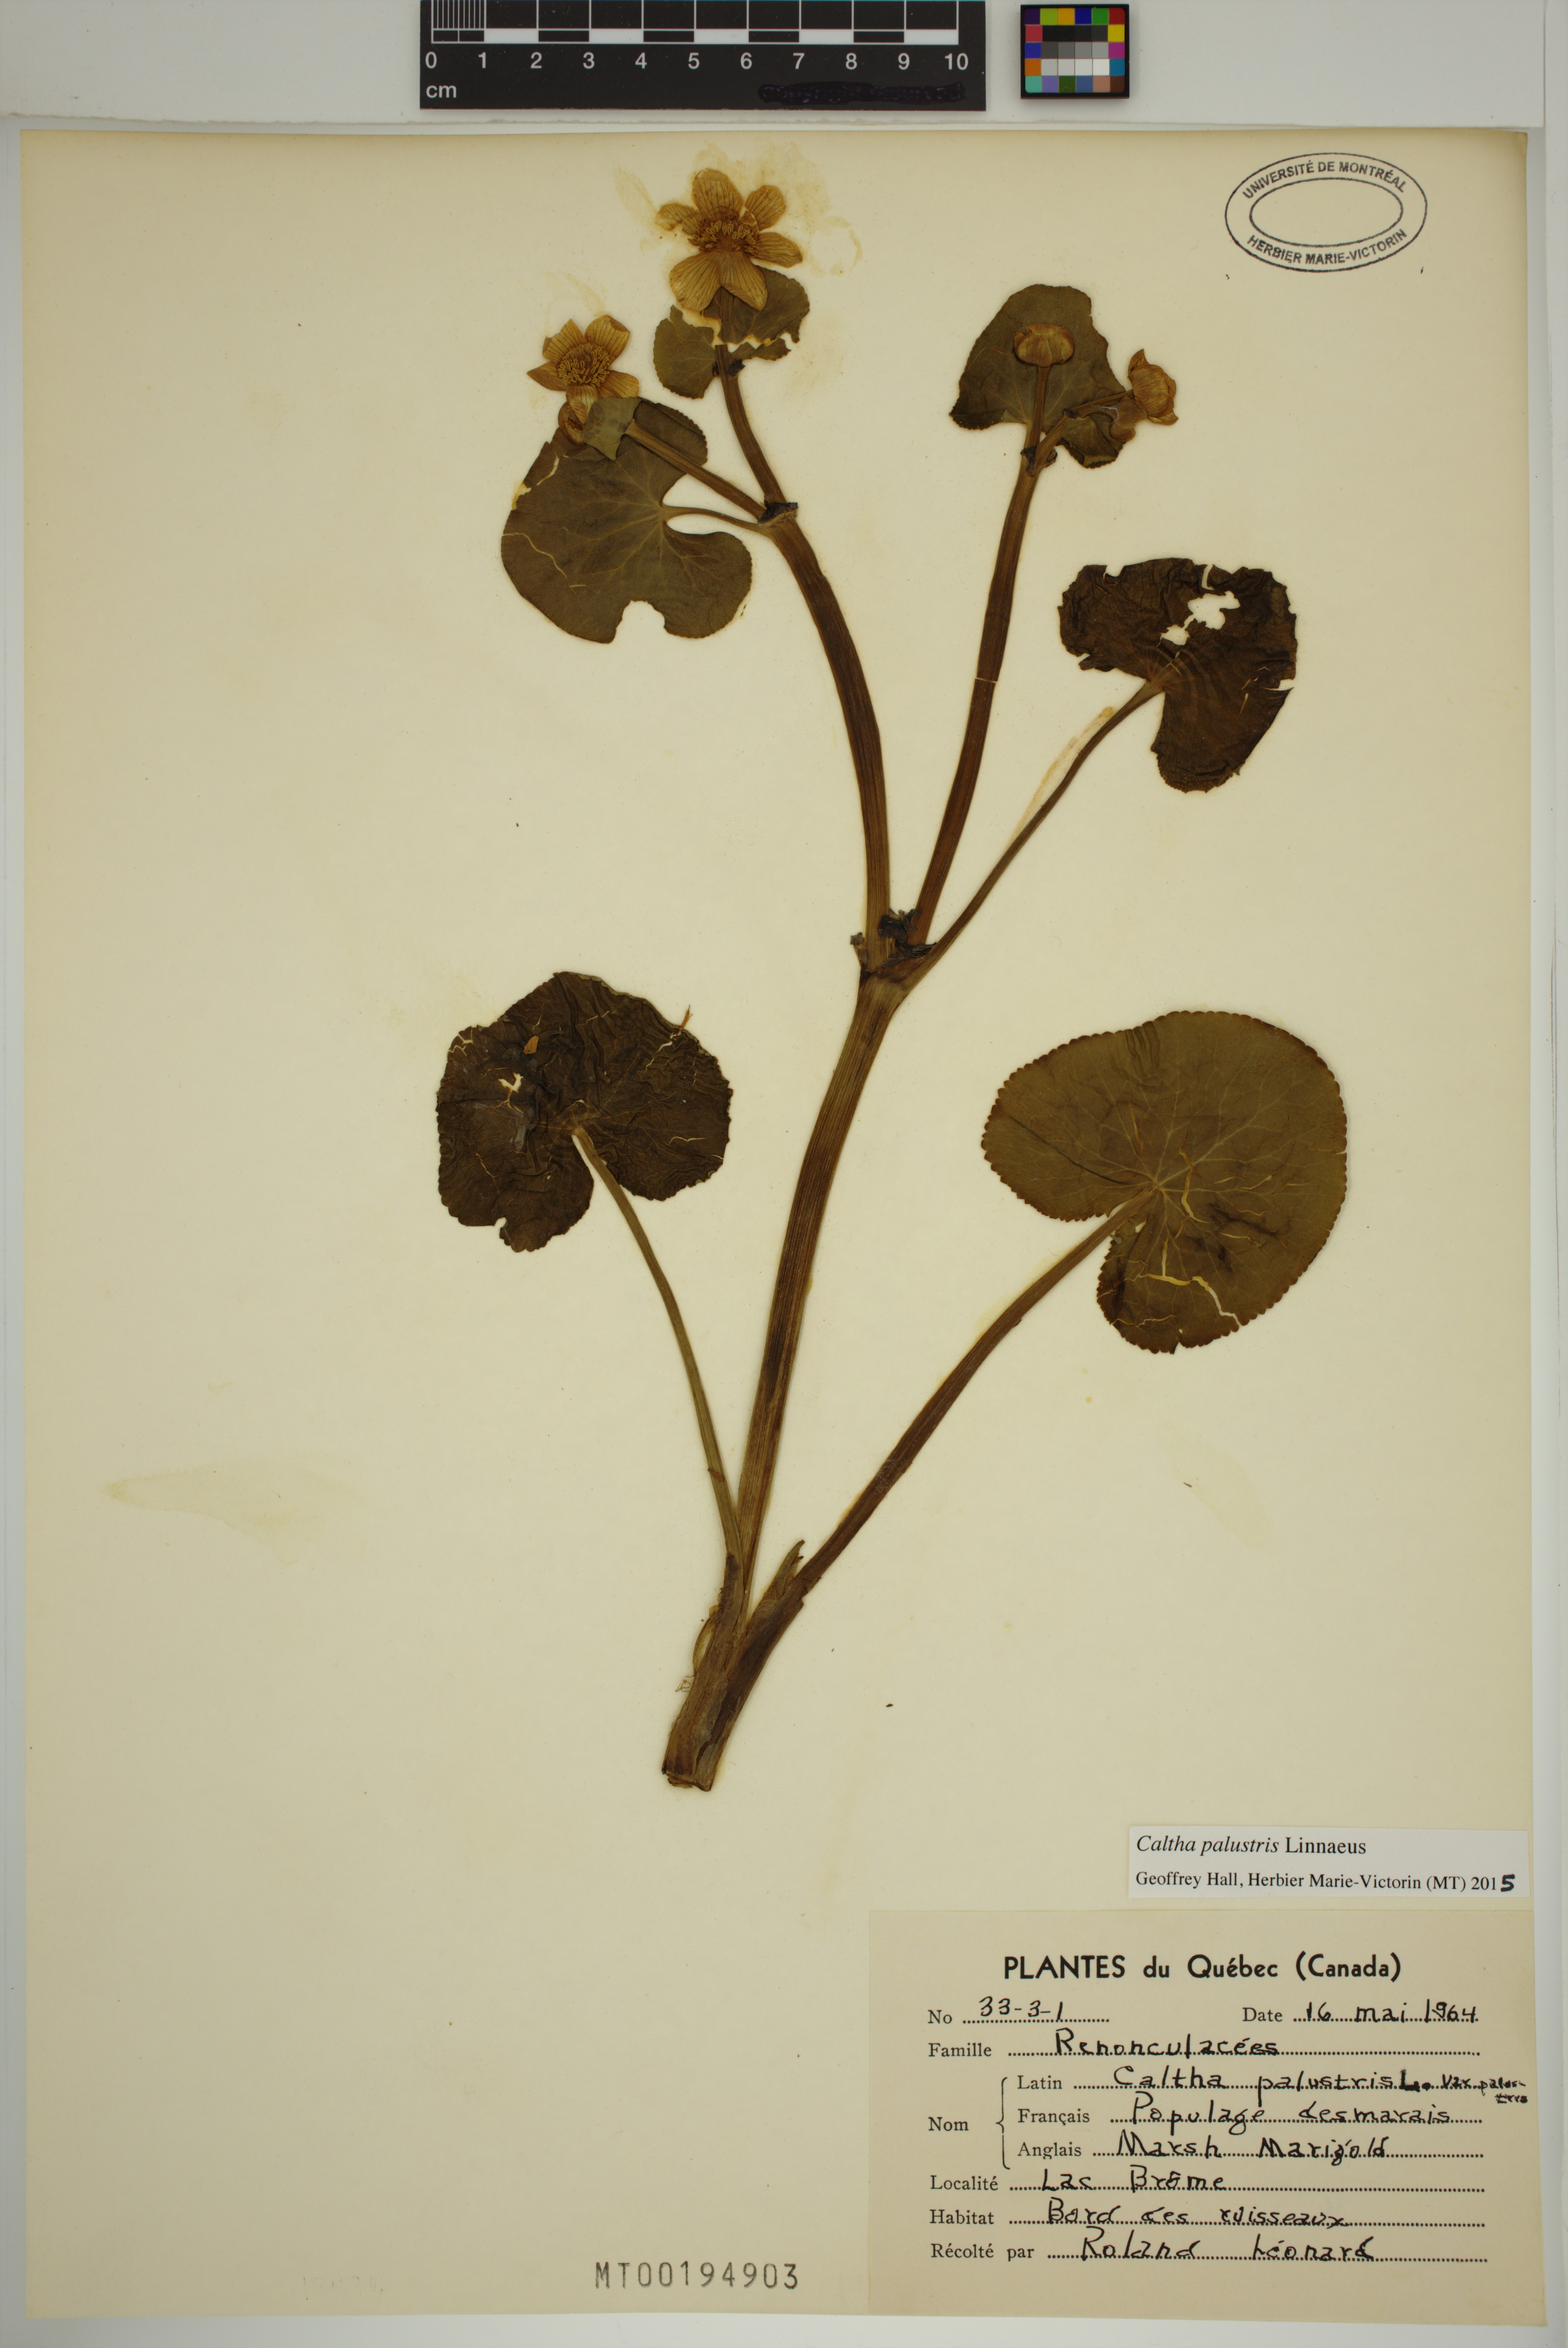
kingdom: Plantae
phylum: Tracheophyta
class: Magnoliopsida
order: Ranunculales
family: Ranunculaceae
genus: Caltha
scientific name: Caltha palustris
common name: Marsh marigold
